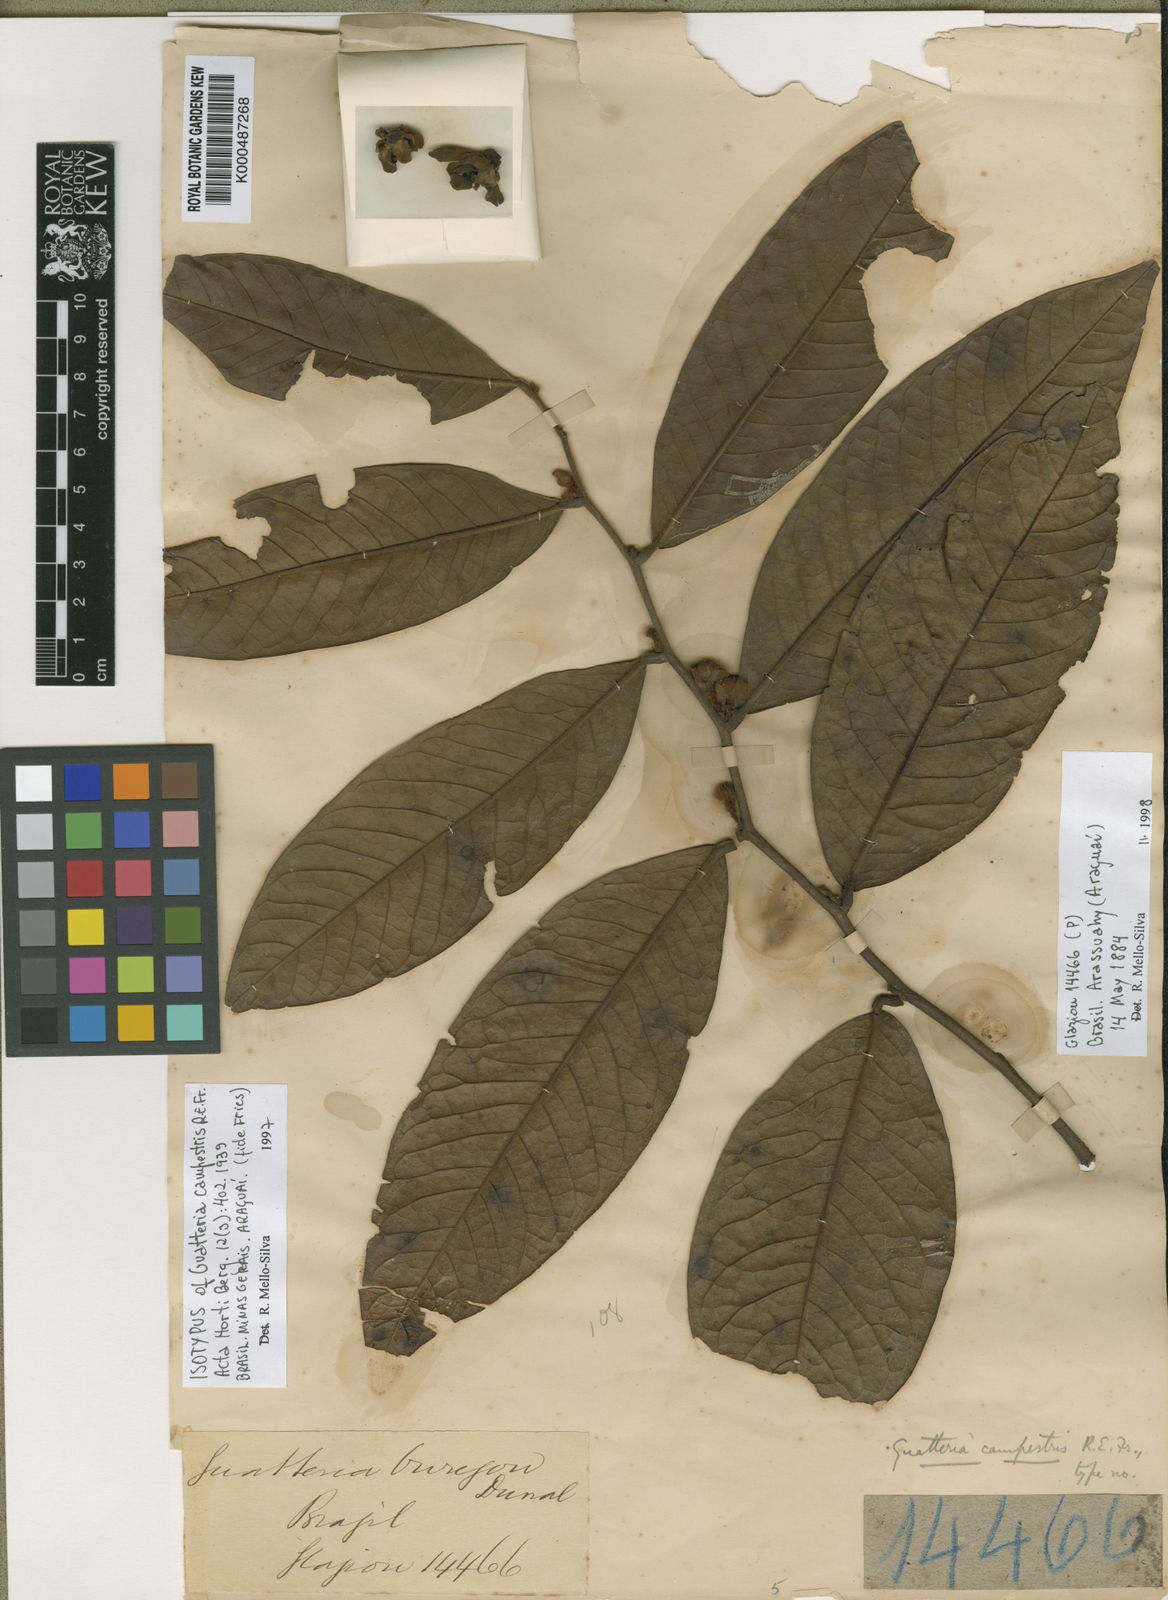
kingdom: Plantae
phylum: Tracheophyta
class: Magnoliopsida
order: Magnoliales
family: Annonaceae
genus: Guatteria
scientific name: Guatteria campestris
